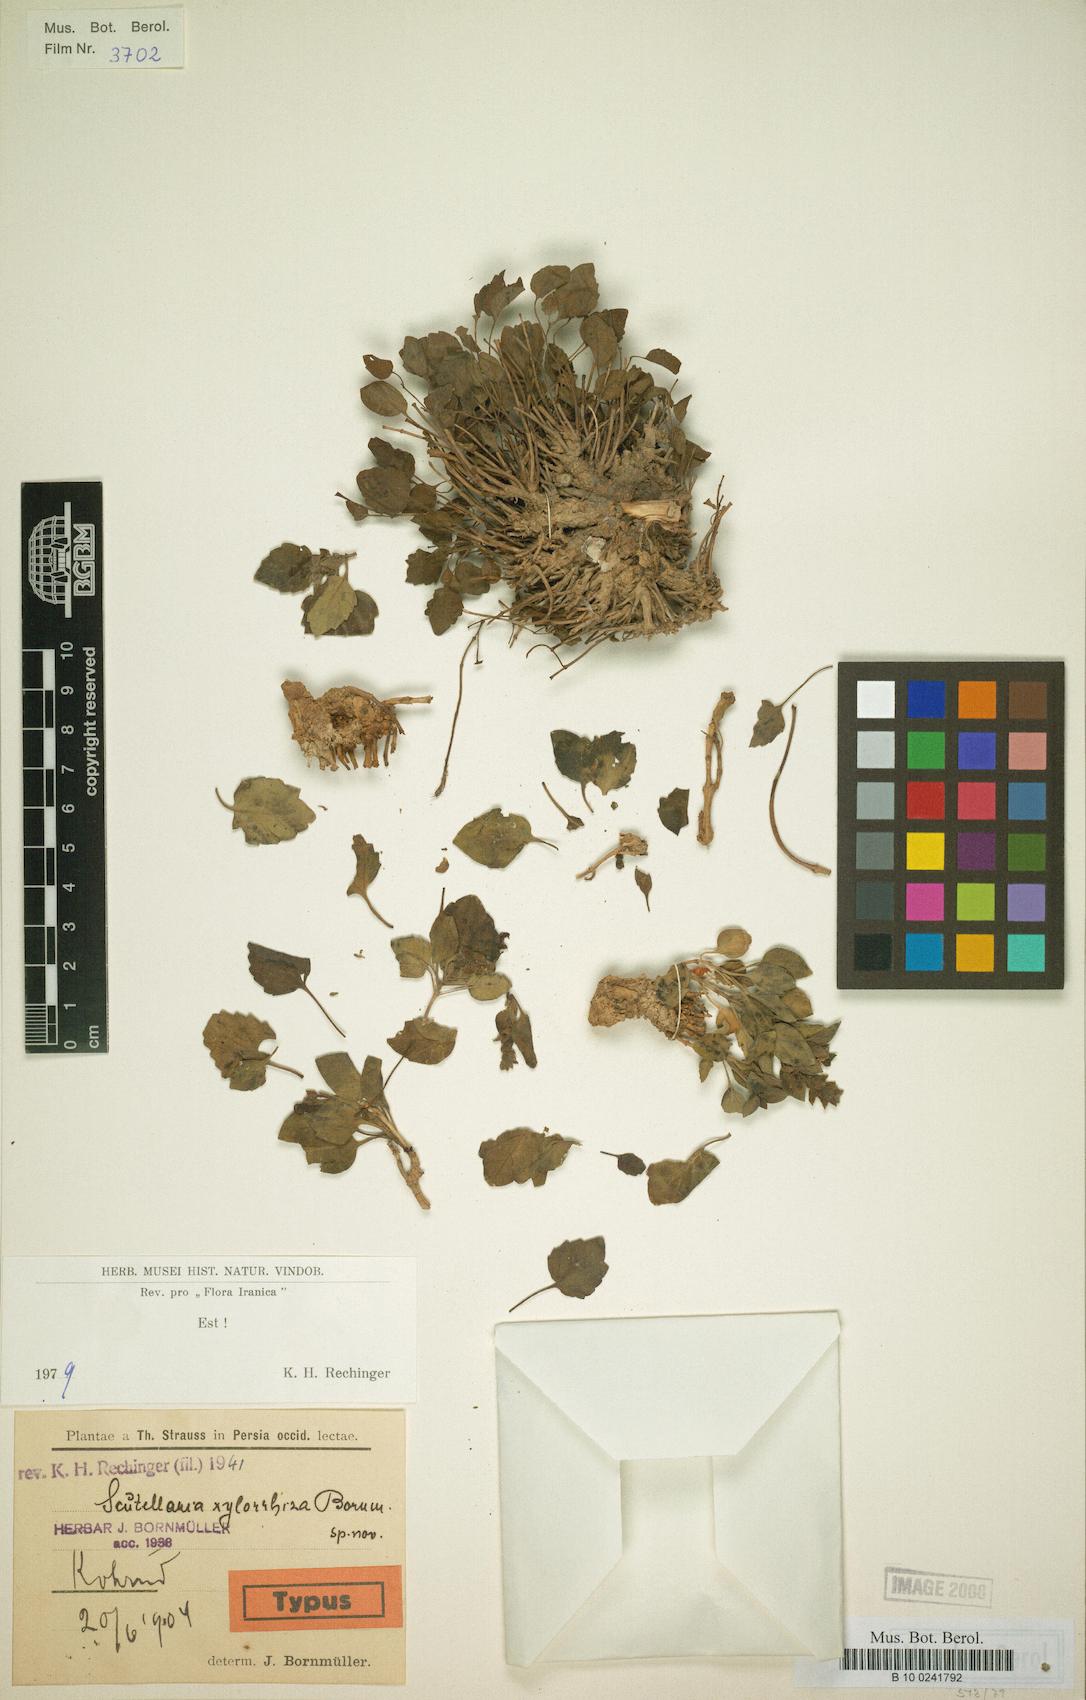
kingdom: Plantae
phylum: Tracheophyta
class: Magnoliopsida
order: Lamiales
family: Lamiaceae
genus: Scutellaria
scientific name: Scutellaria xylorrhiza
